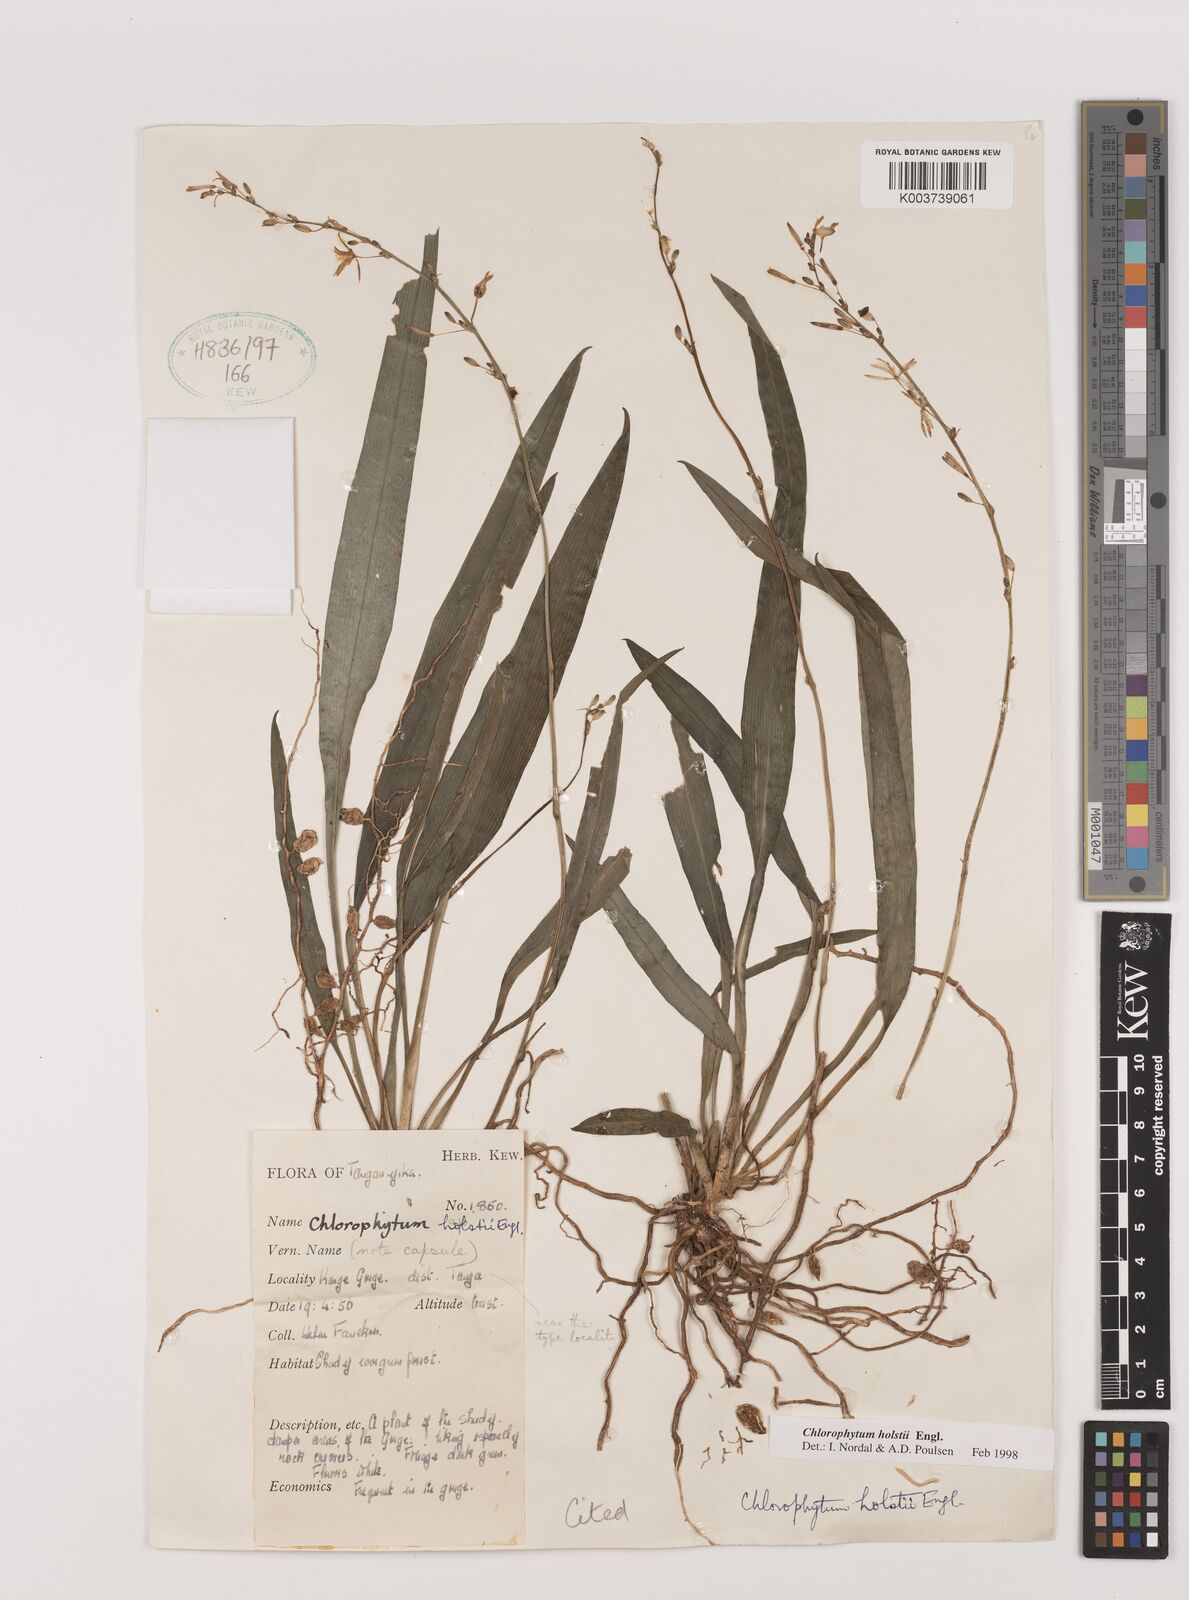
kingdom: Plantae
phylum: Tracheophyta
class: Liliopsida
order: Asparagales
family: Asparagaceae
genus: Chlorophytum
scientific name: Chlorophytum holstii
